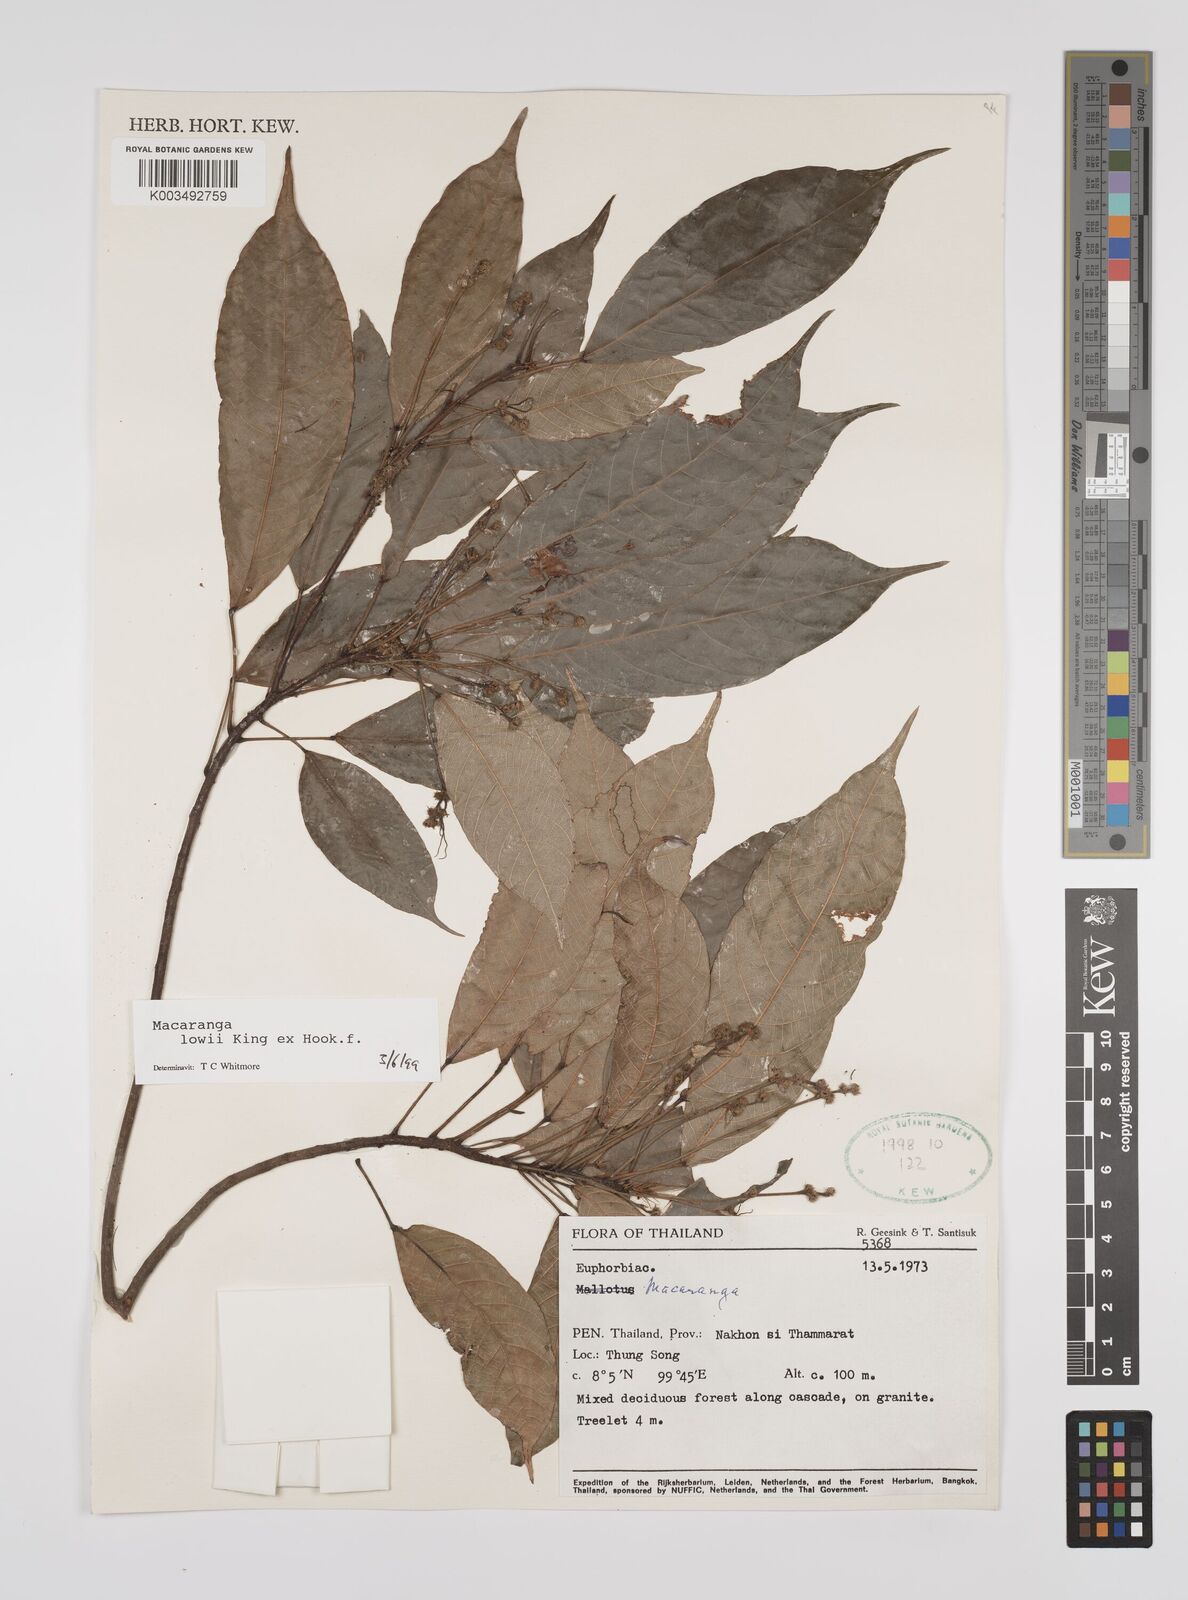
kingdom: Plantae
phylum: Tracheophyta
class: Magnoliopsida
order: Malpighiales
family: Euphorbiaceae
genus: Macaranga
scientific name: Macaranga lowii
